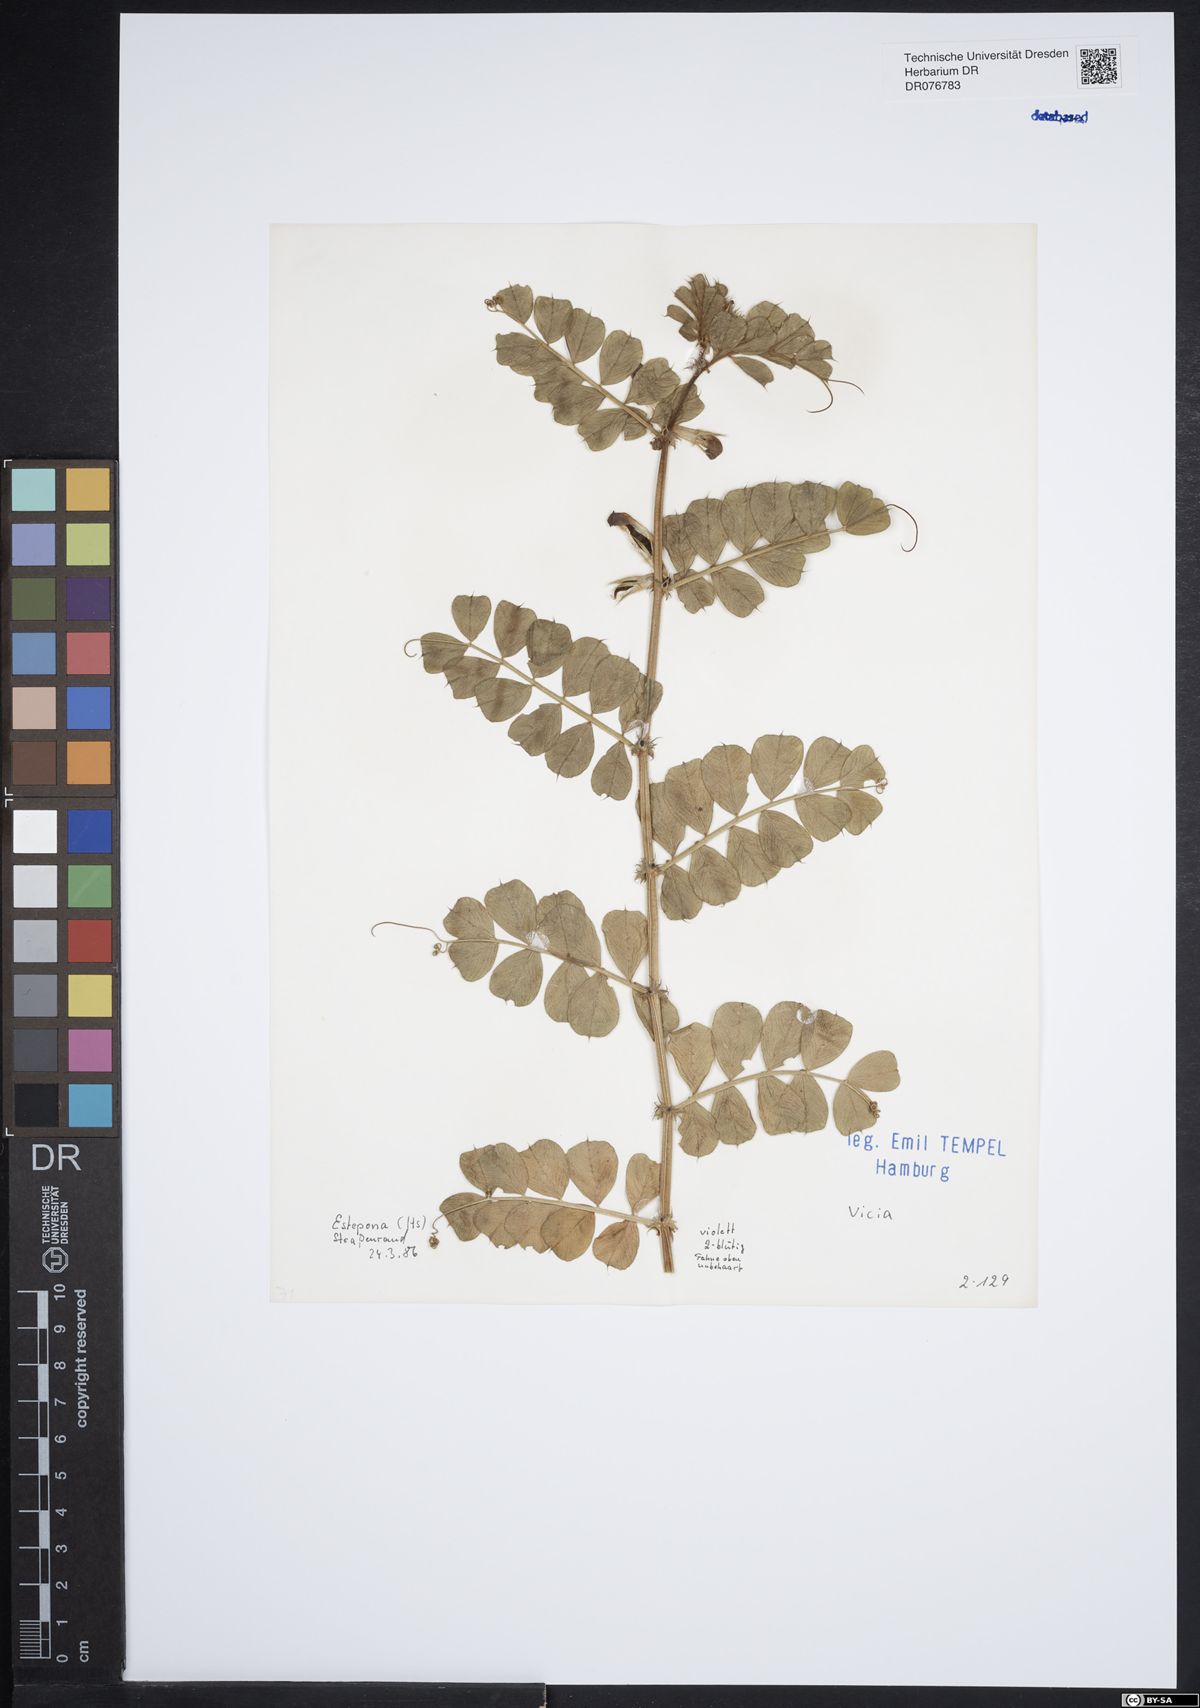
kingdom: Plantae
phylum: Tracheophyta
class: Magnoliopsida
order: Fabales
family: Fabaceae
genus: Vicia
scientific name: Vicia
